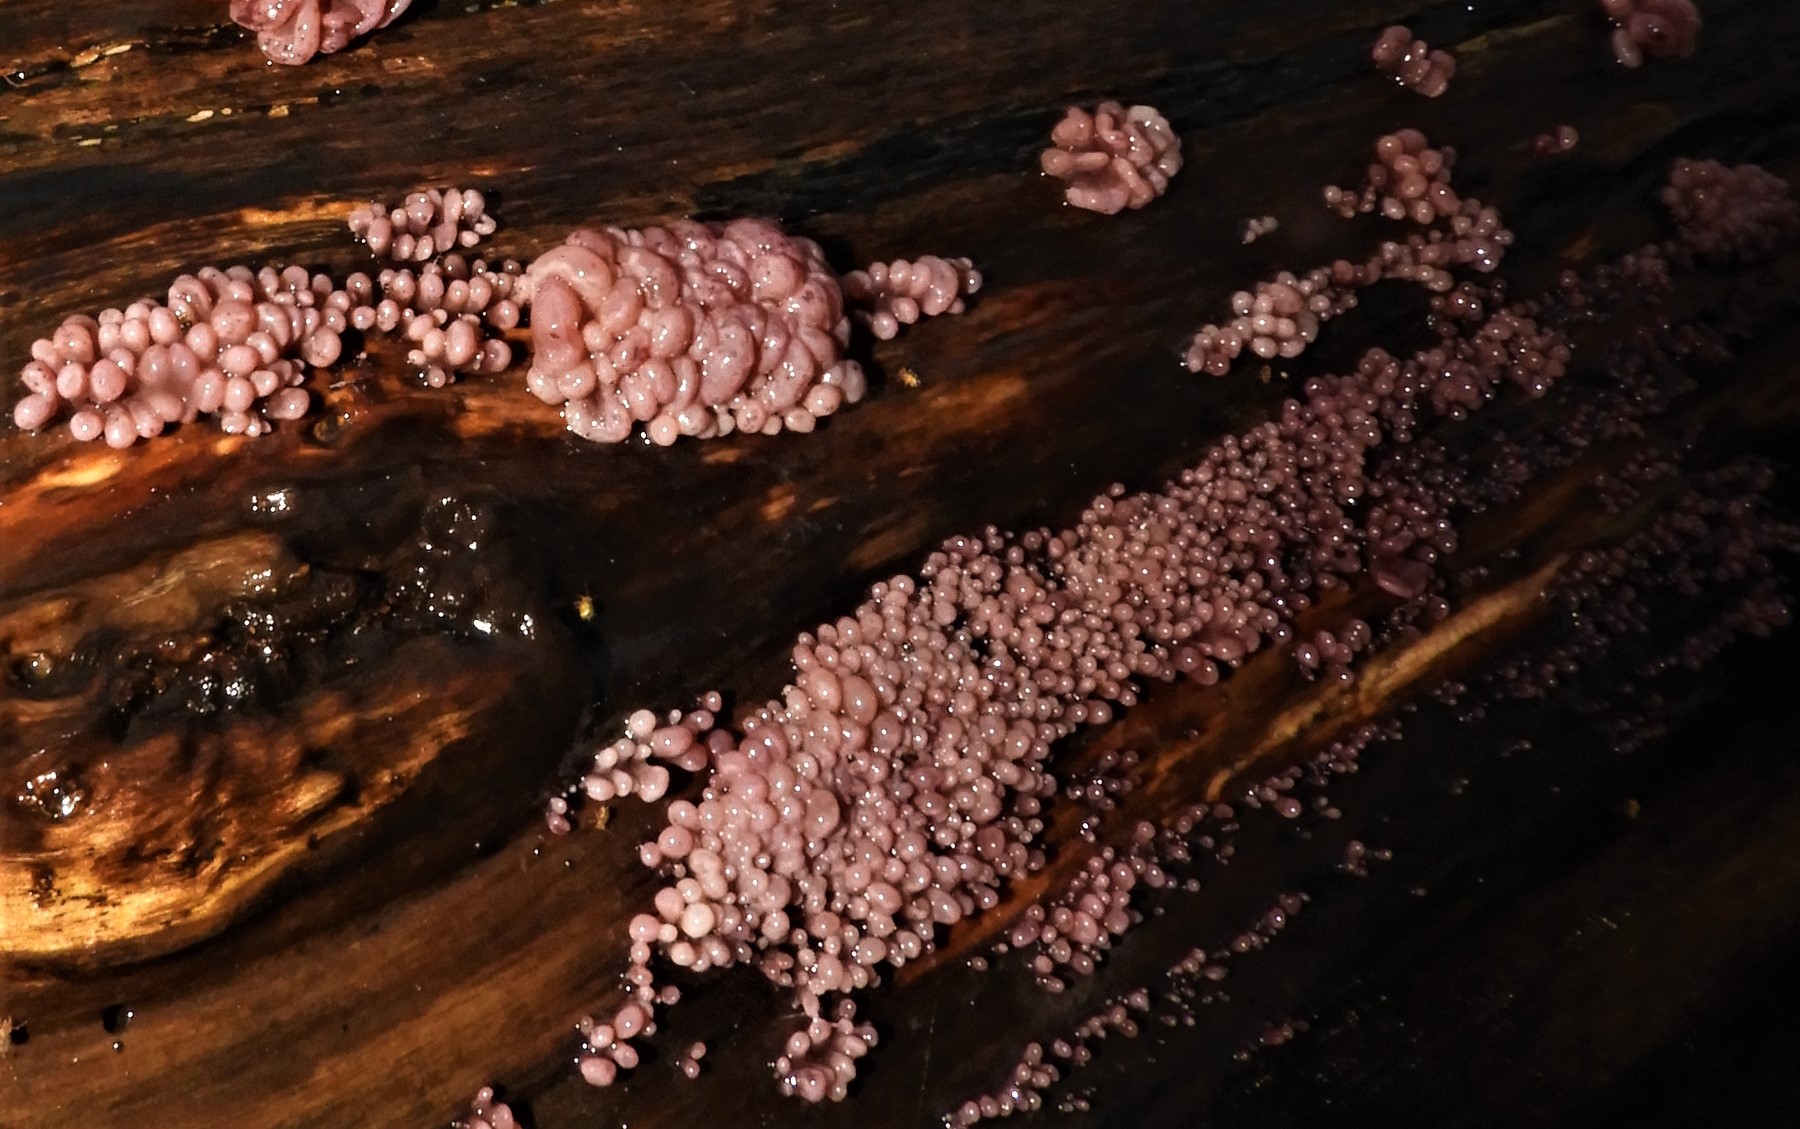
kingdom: Fungi
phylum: Ascomycota
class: Leotiomycetes
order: Helotiales
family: Gelatinodiscaceae
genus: Ascocoryne
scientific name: Ascocoryne sarcoides
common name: rødlilla sejskive
